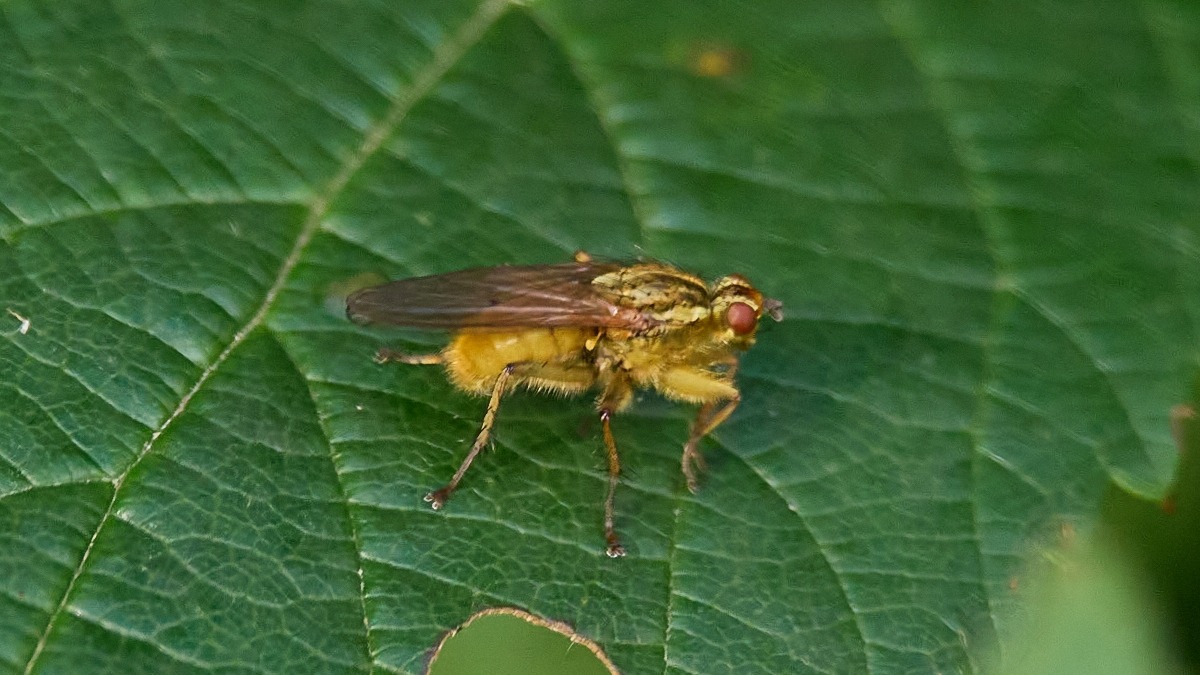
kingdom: Animalia
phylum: Arthropoda
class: Insecta
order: Diptera
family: Scathophagidae
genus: Scathophaga
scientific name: Scathophaga stercoraria
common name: Almindelig gødningsflue
